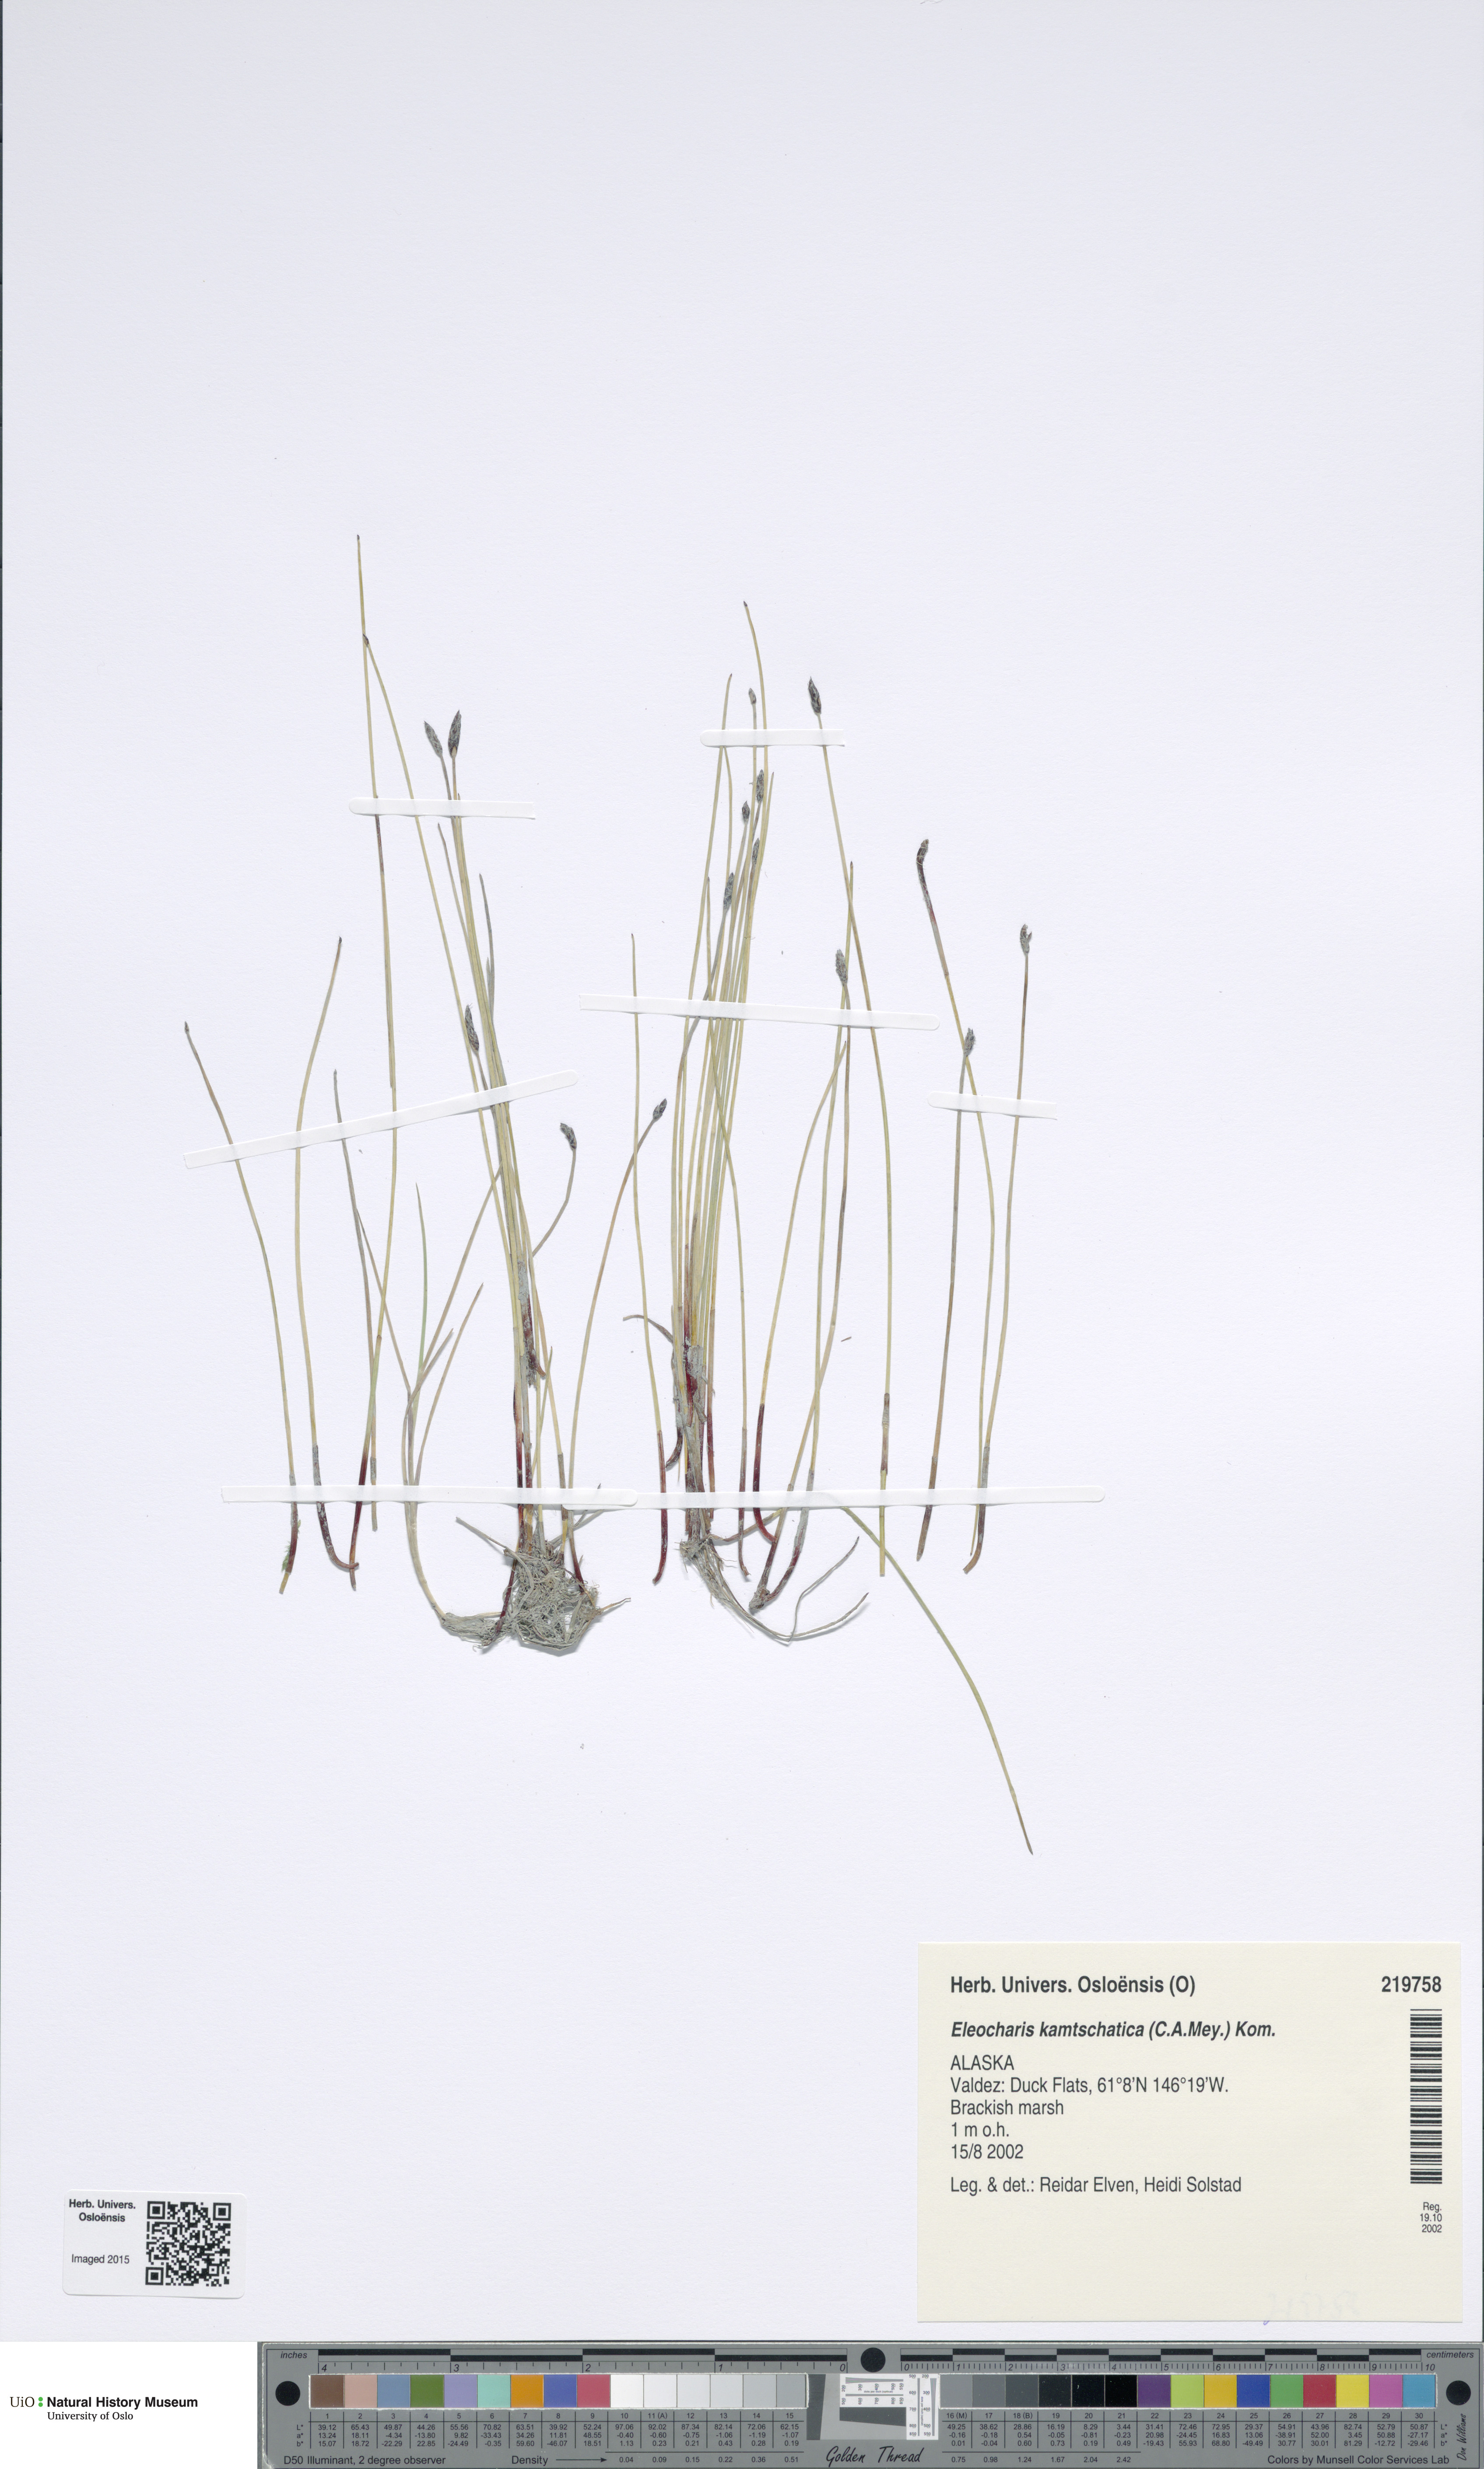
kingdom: Plantae
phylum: Tracheophyta
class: Liliopsida
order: Poales
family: Cyperaceae
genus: Eleocharis
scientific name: Eleocharis kamtschatica
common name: Kamchatka spikerush
